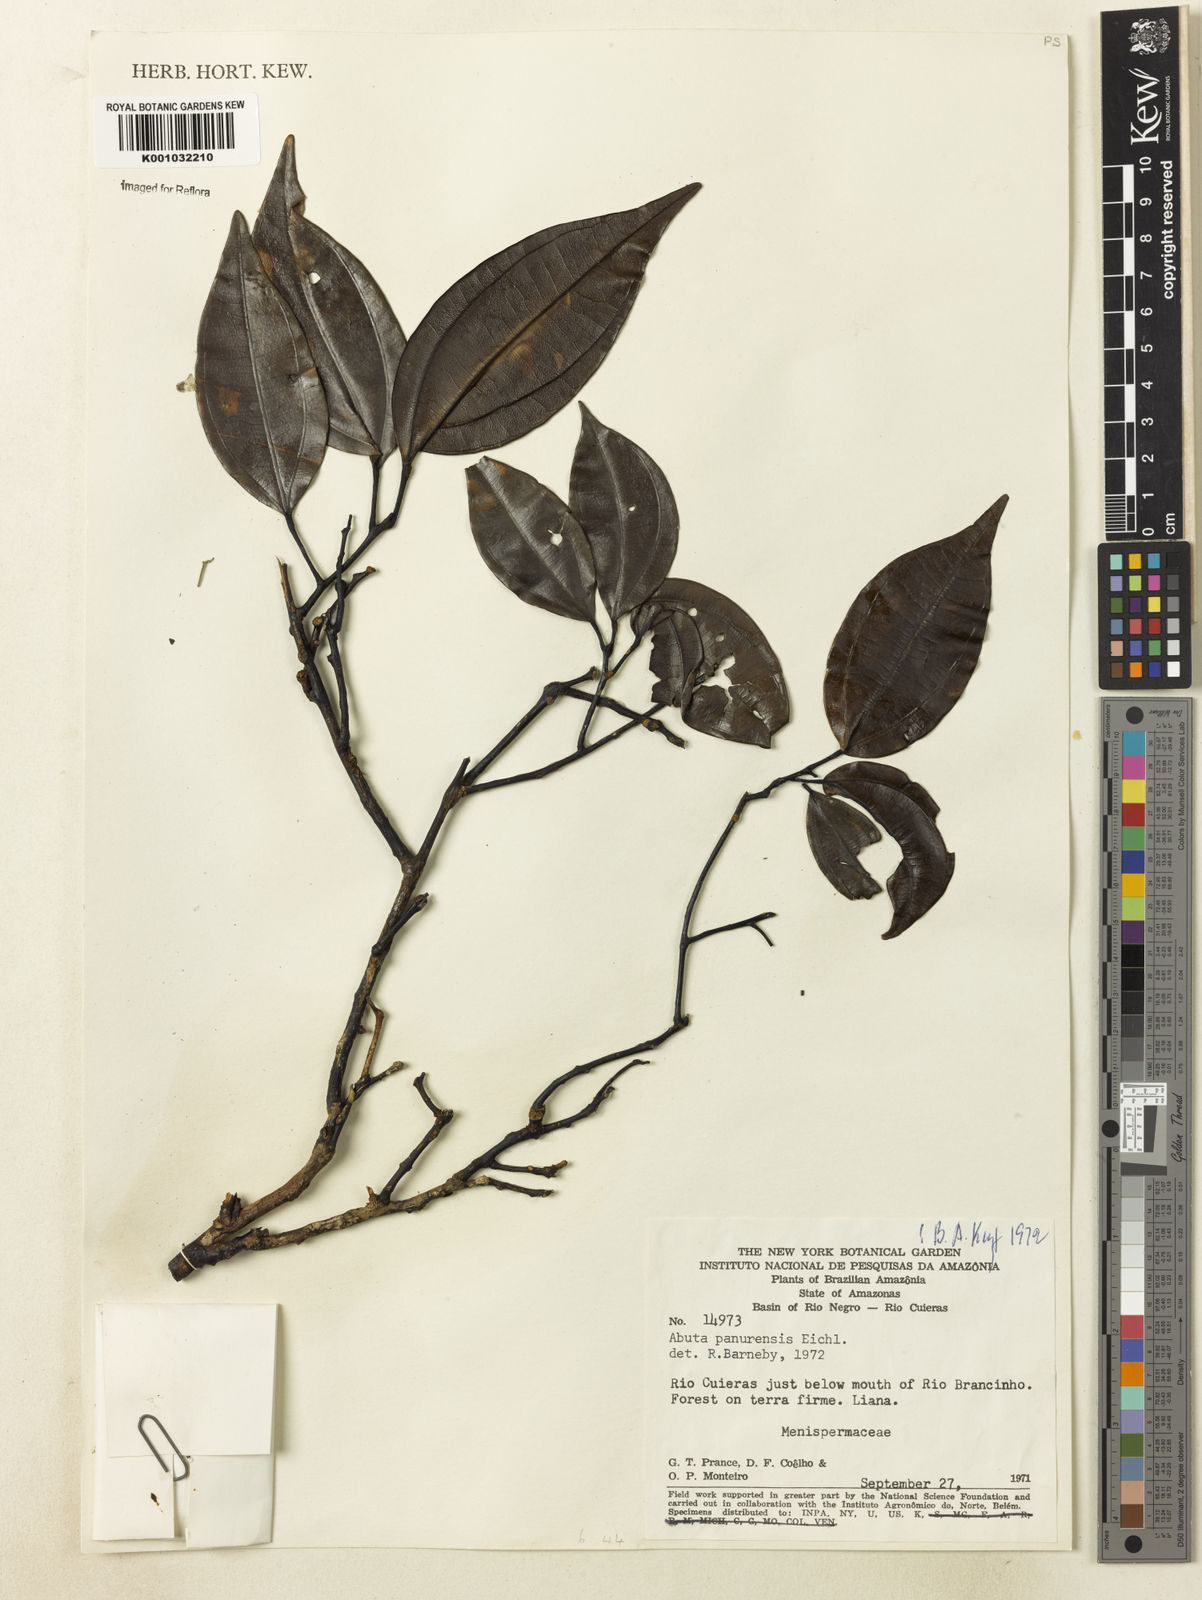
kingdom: Plantae
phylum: Tracheophyta
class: Magnoliopsida
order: Ranunculales
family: Menispermaceae
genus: Abuta
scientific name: Abuta panurensis
